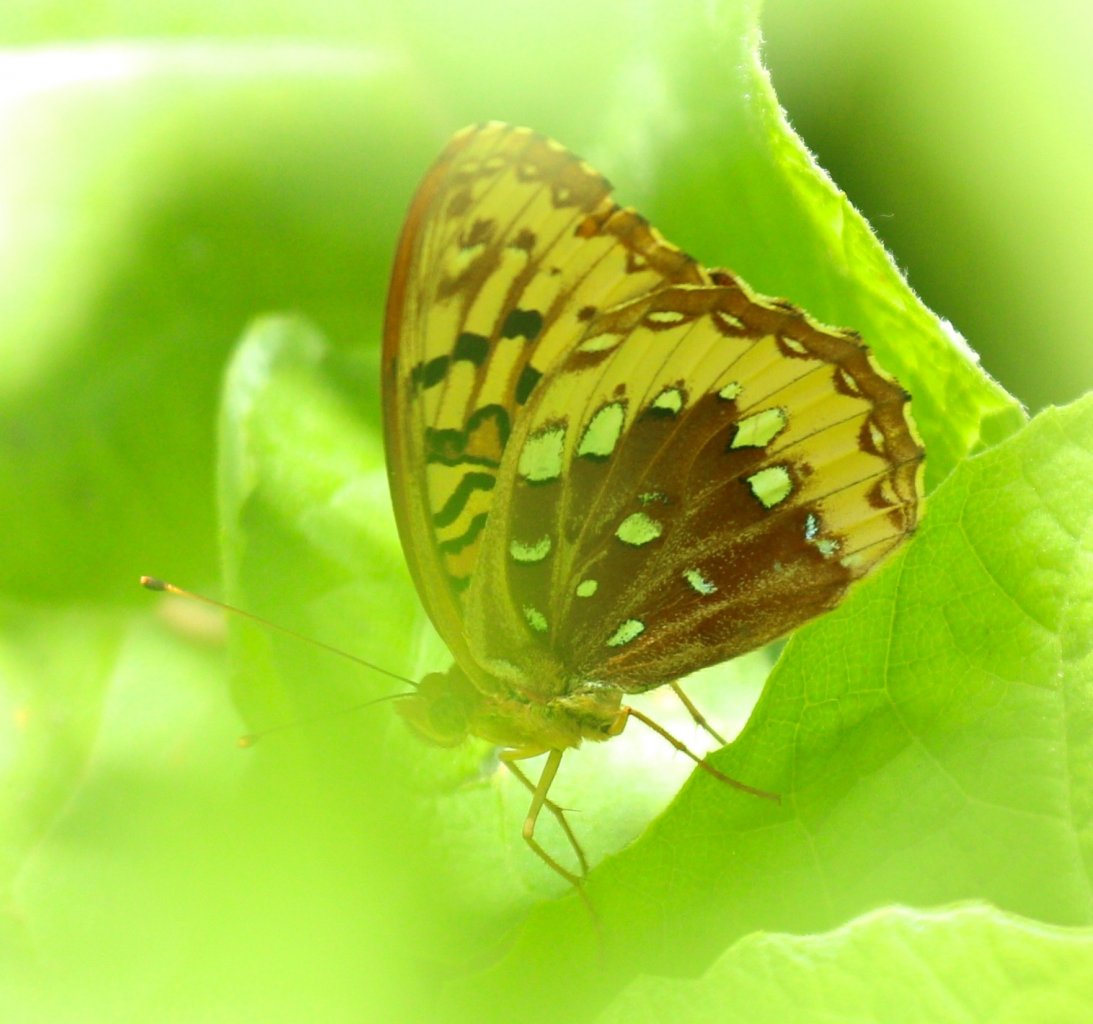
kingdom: Animalia
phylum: Arthropoda
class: Insecta
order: Lepidoptera
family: Nymphalidae
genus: Speyeria
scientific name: Speyeria cybele
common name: Great Spangled Fritillary
